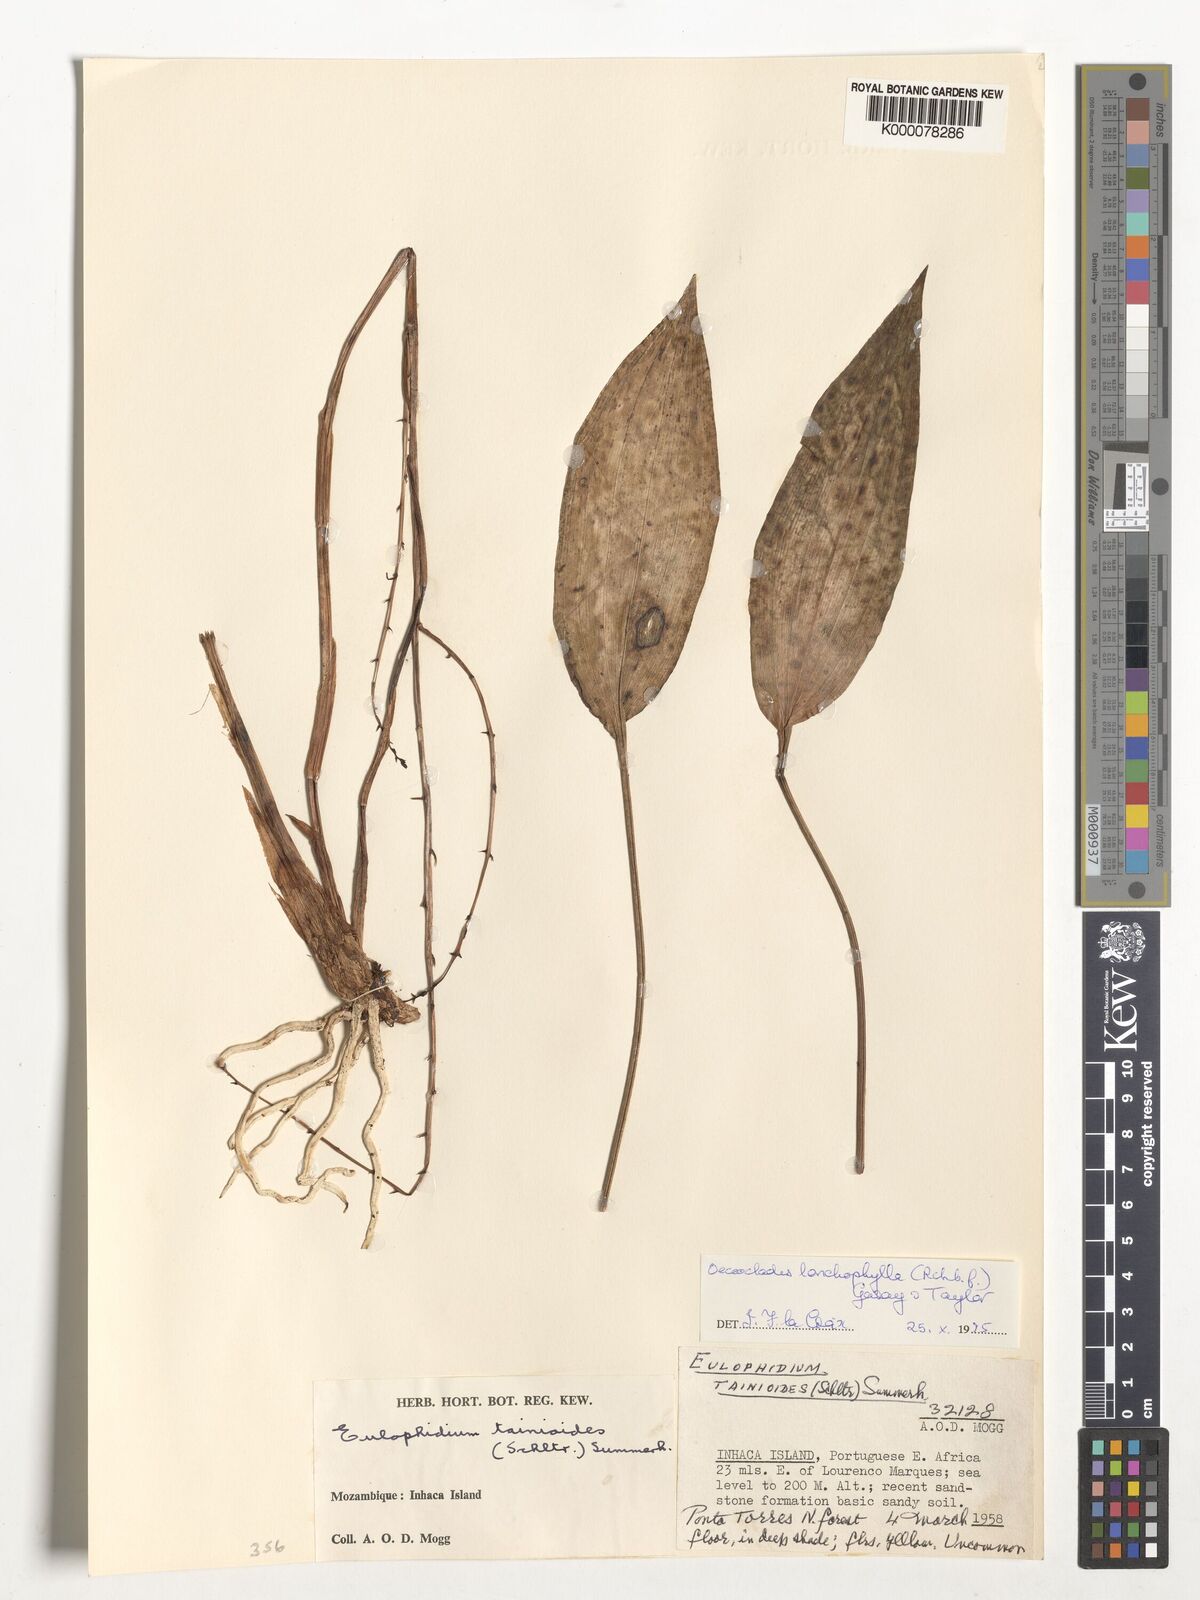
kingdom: Plantae
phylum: Tracheophyta
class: Liliopsida
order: Asparagales
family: Orchidaceae
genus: Eulophia
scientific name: Eulophia lonchophylla
